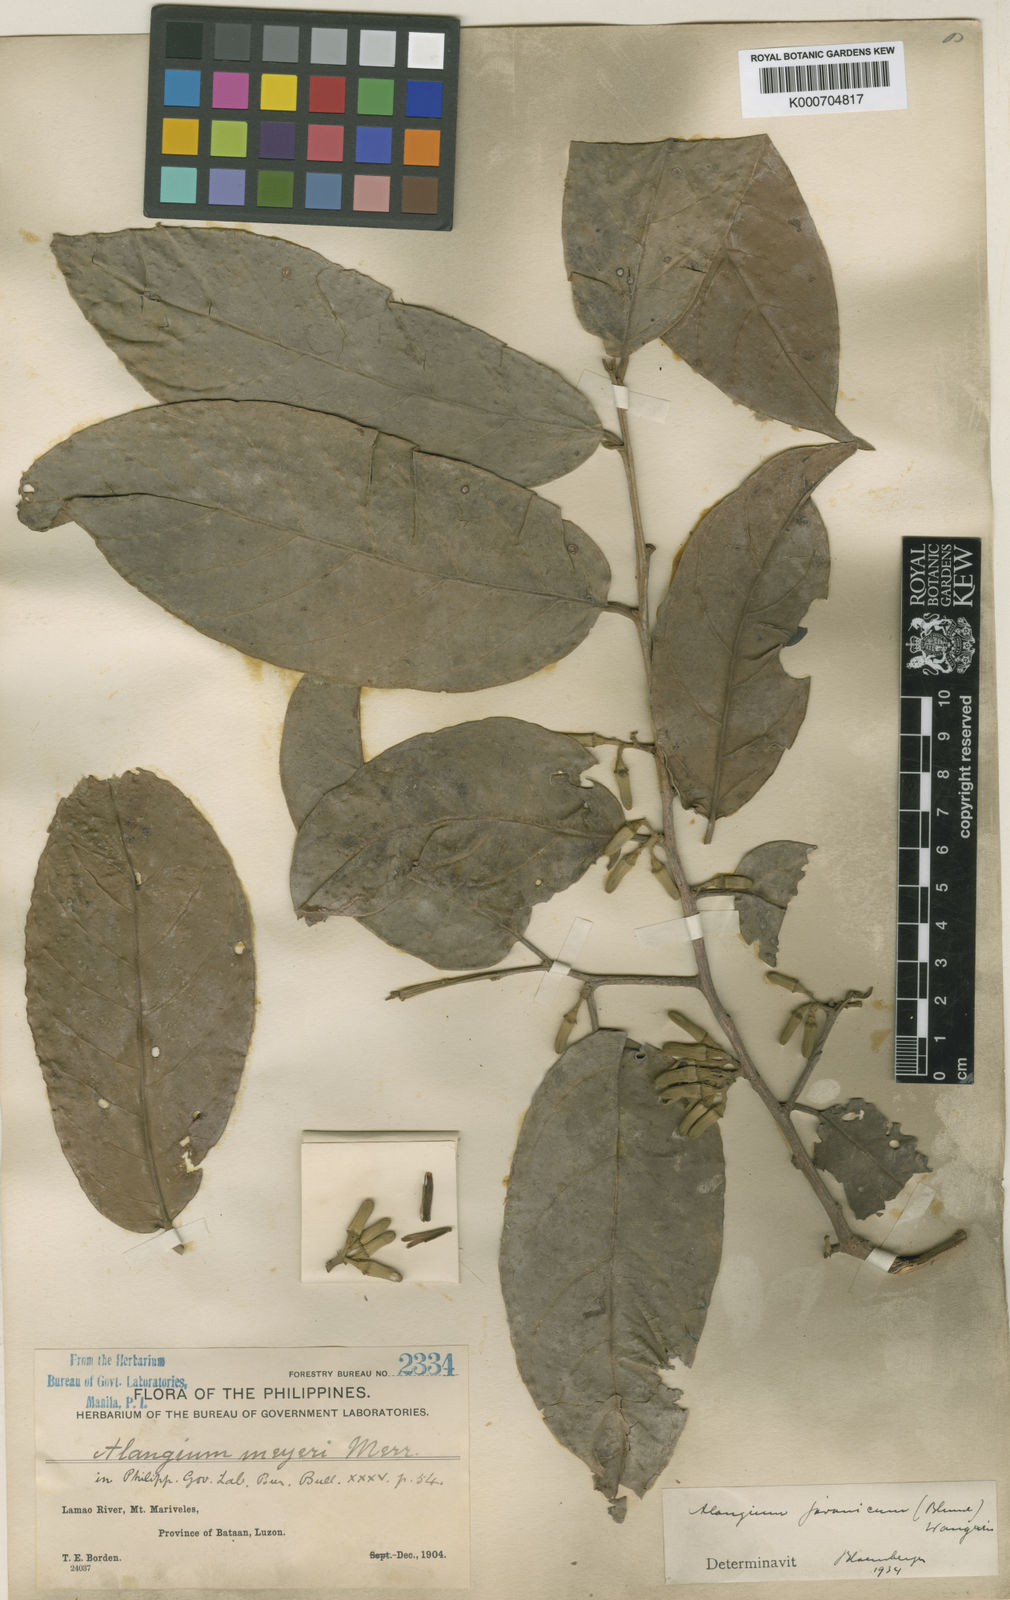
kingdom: Plantae
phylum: Tracheophyta
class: Magnoliopsida
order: Cornales
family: Cornaceae
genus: Alangium
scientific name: Alangium meyeri
